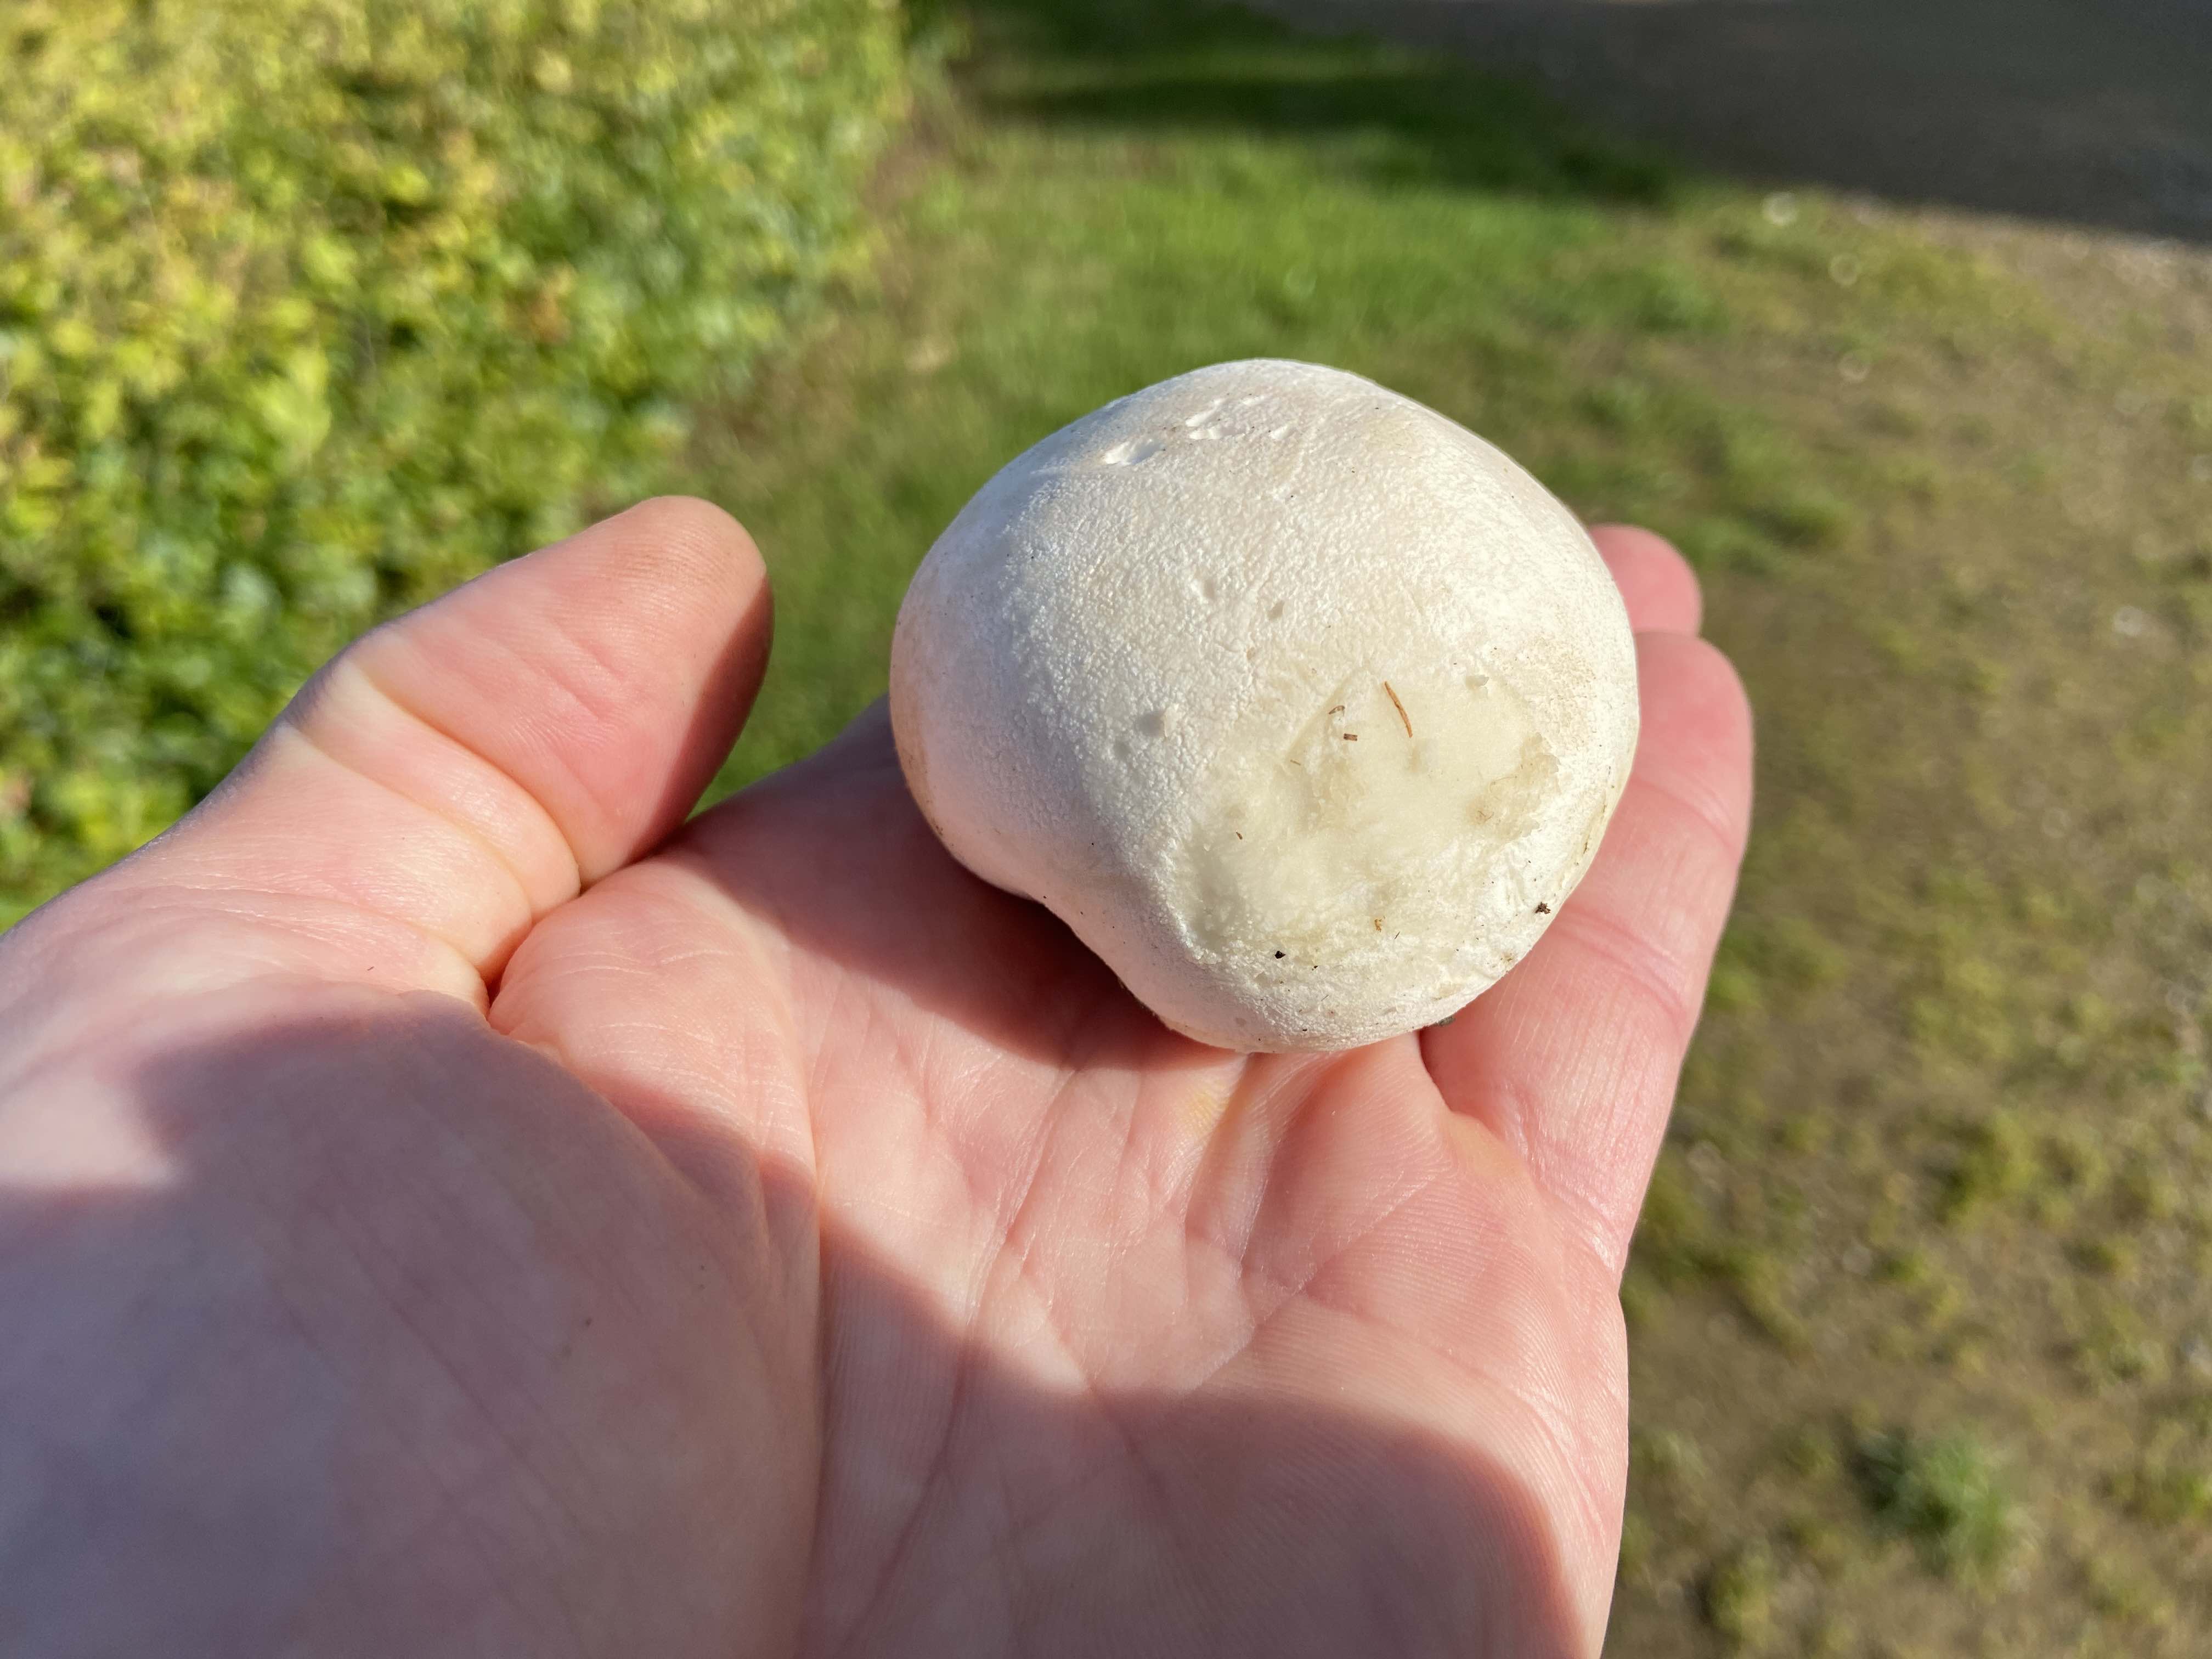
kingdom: Fungi
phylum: Basidiomycota
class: Agaricomycetes
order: Agaricales
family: Lycoperdaceae
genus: Bovista
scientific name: Bovista
